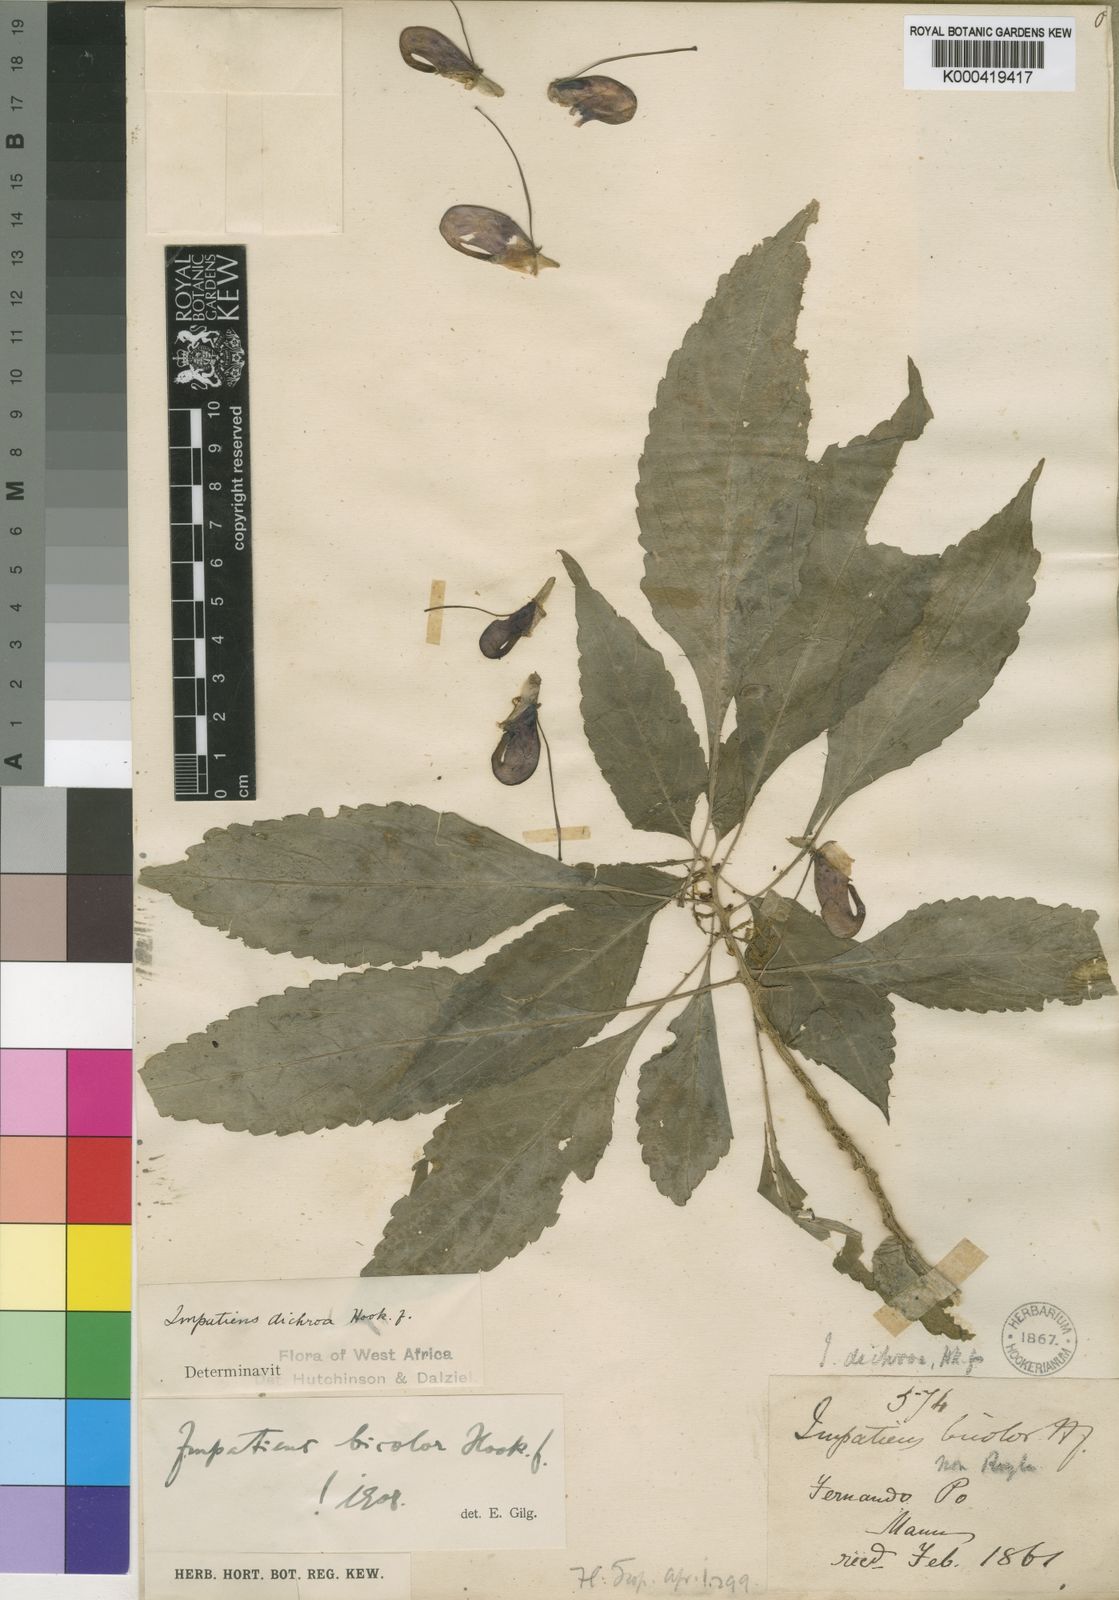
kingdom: Plantae
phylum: Tracheophyta
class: Magnoliopsida
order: Ericales
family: Balsaminaceae
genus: Impatiens
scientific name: Impatiens niamniamensis
